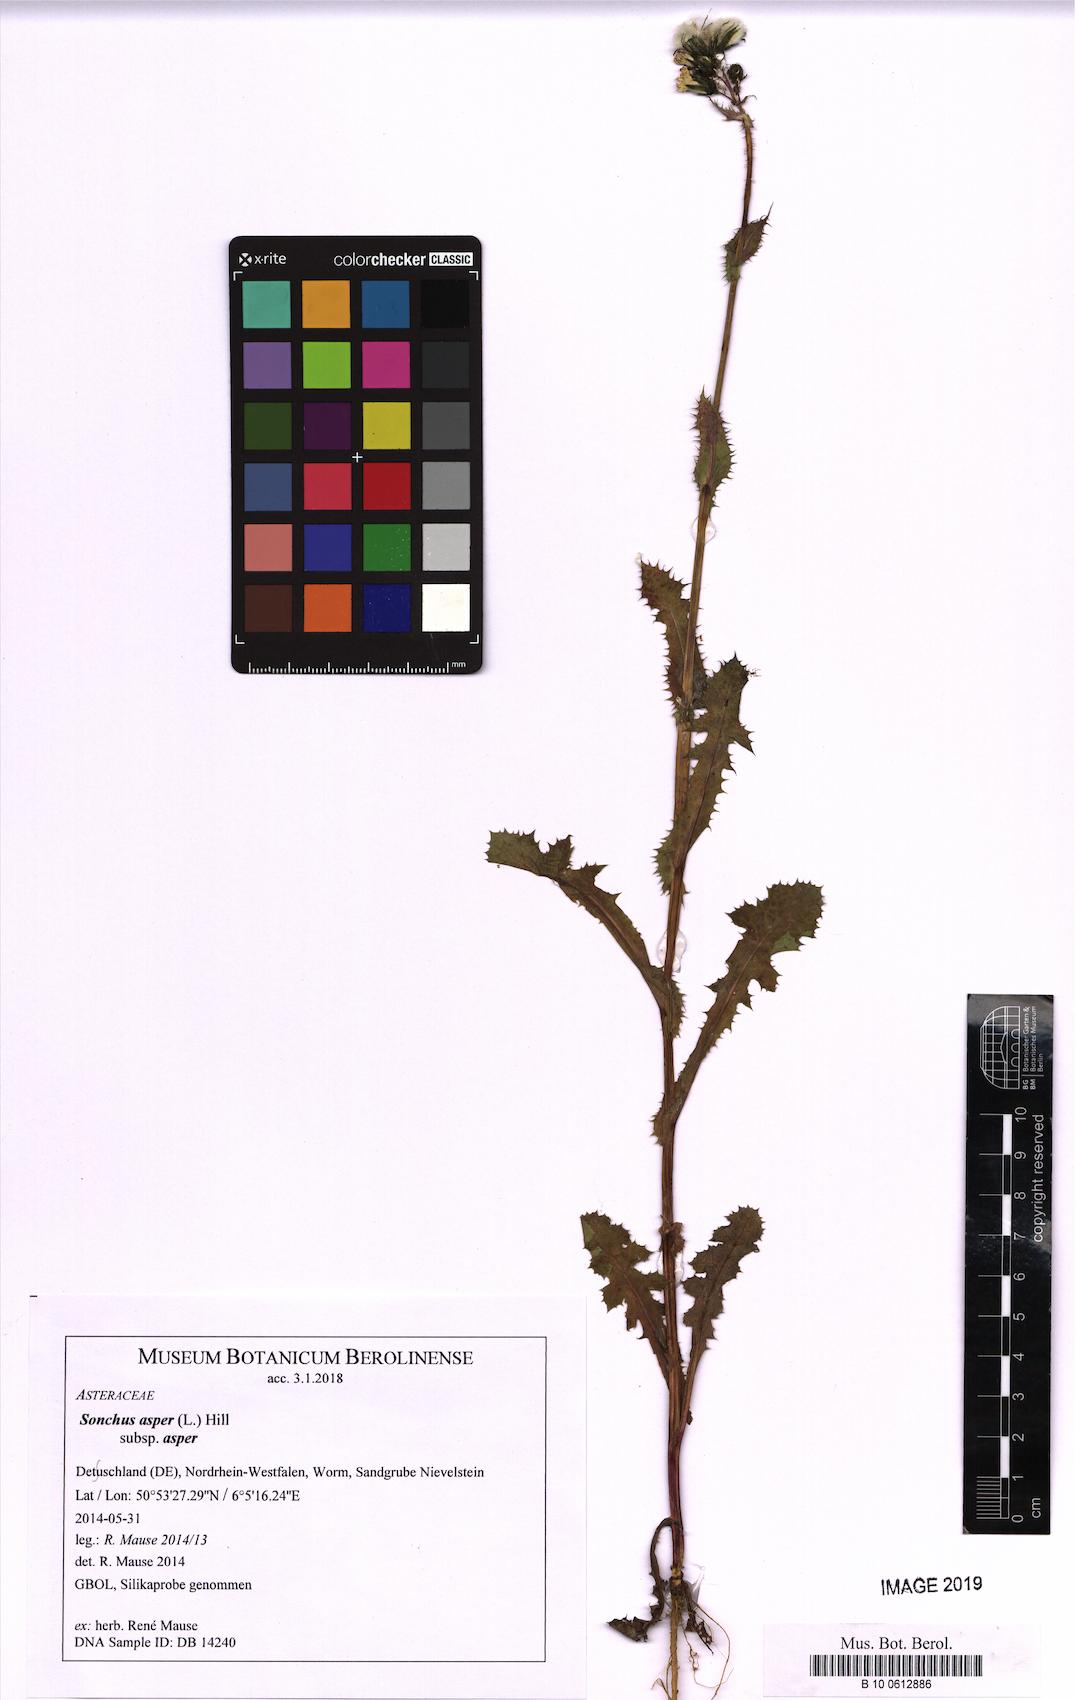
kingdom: Plantae
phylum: Tracheophyta
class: Magnoliopsida
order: Asterales
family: Asteraceae
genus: Sonchus
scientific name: Sonchus asper
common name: Prickly sow-thistle
